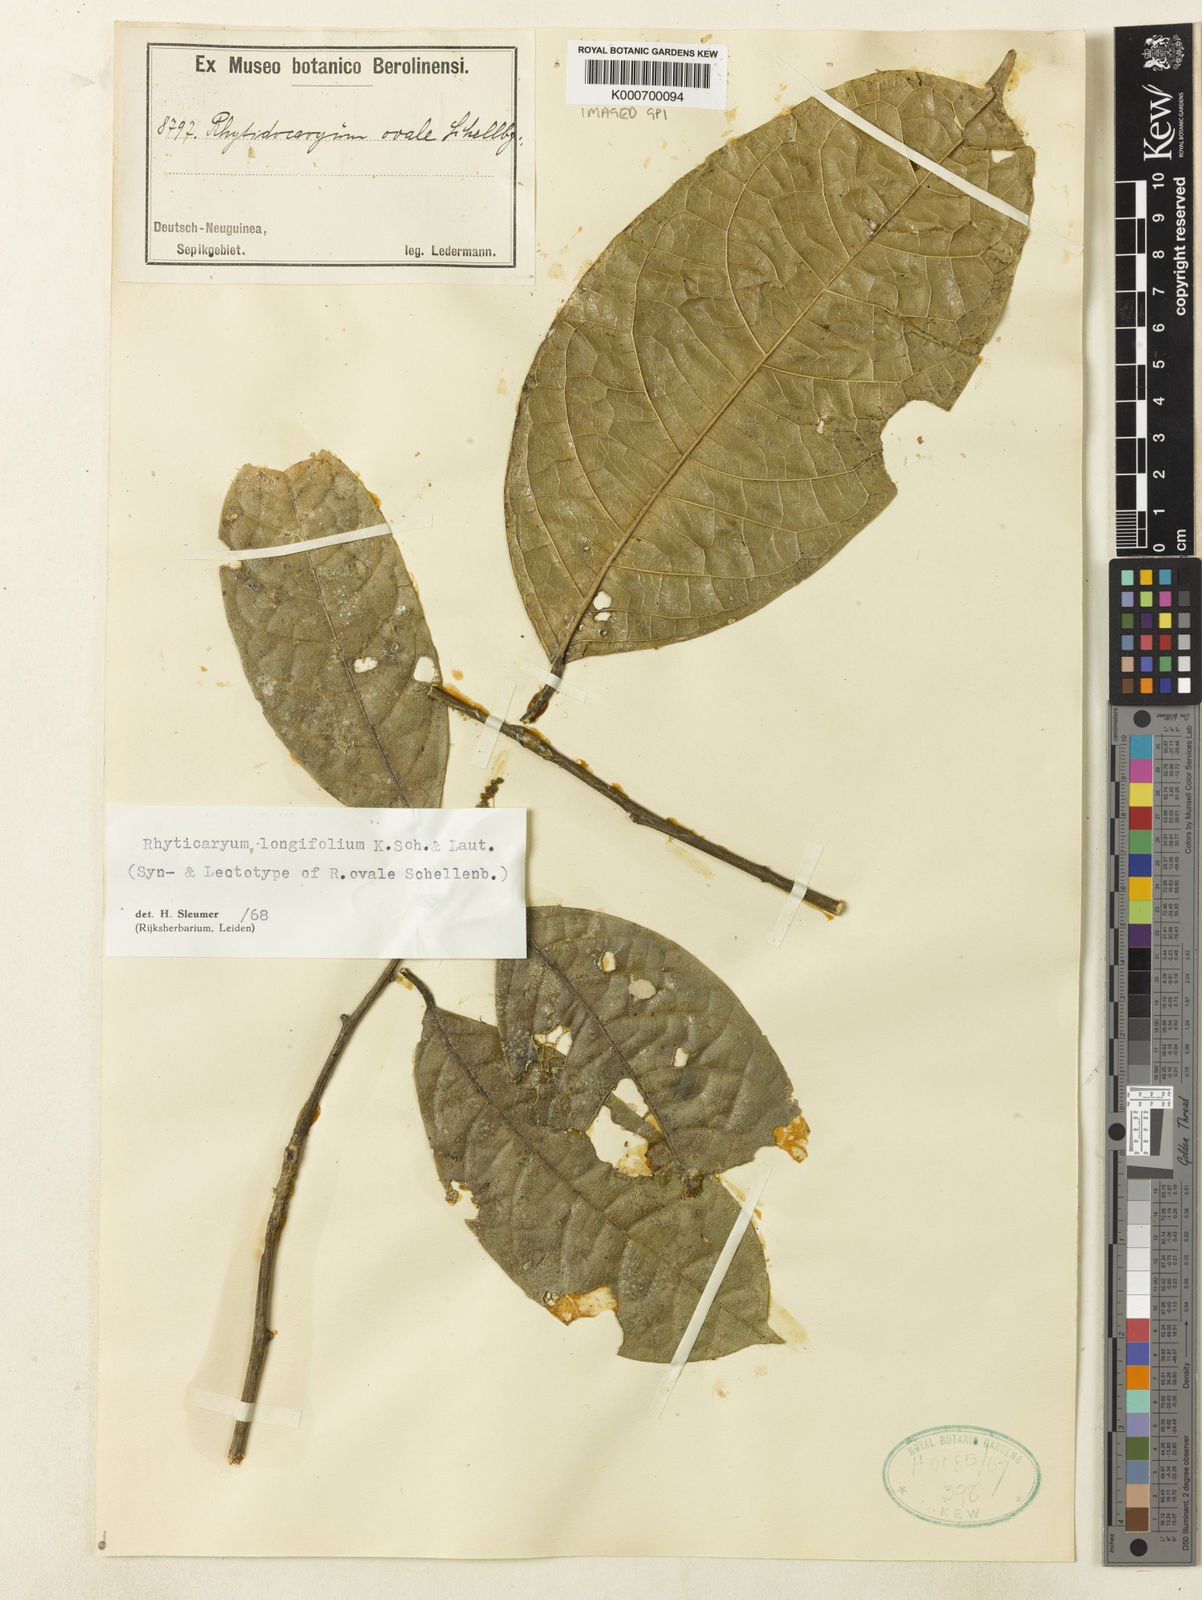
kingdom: Plantae
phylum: Tracheophyta
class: Magnoliopsida
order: Icacinales
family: Icacinaceae
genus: Ryticaryum
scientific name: Ryticaryum
